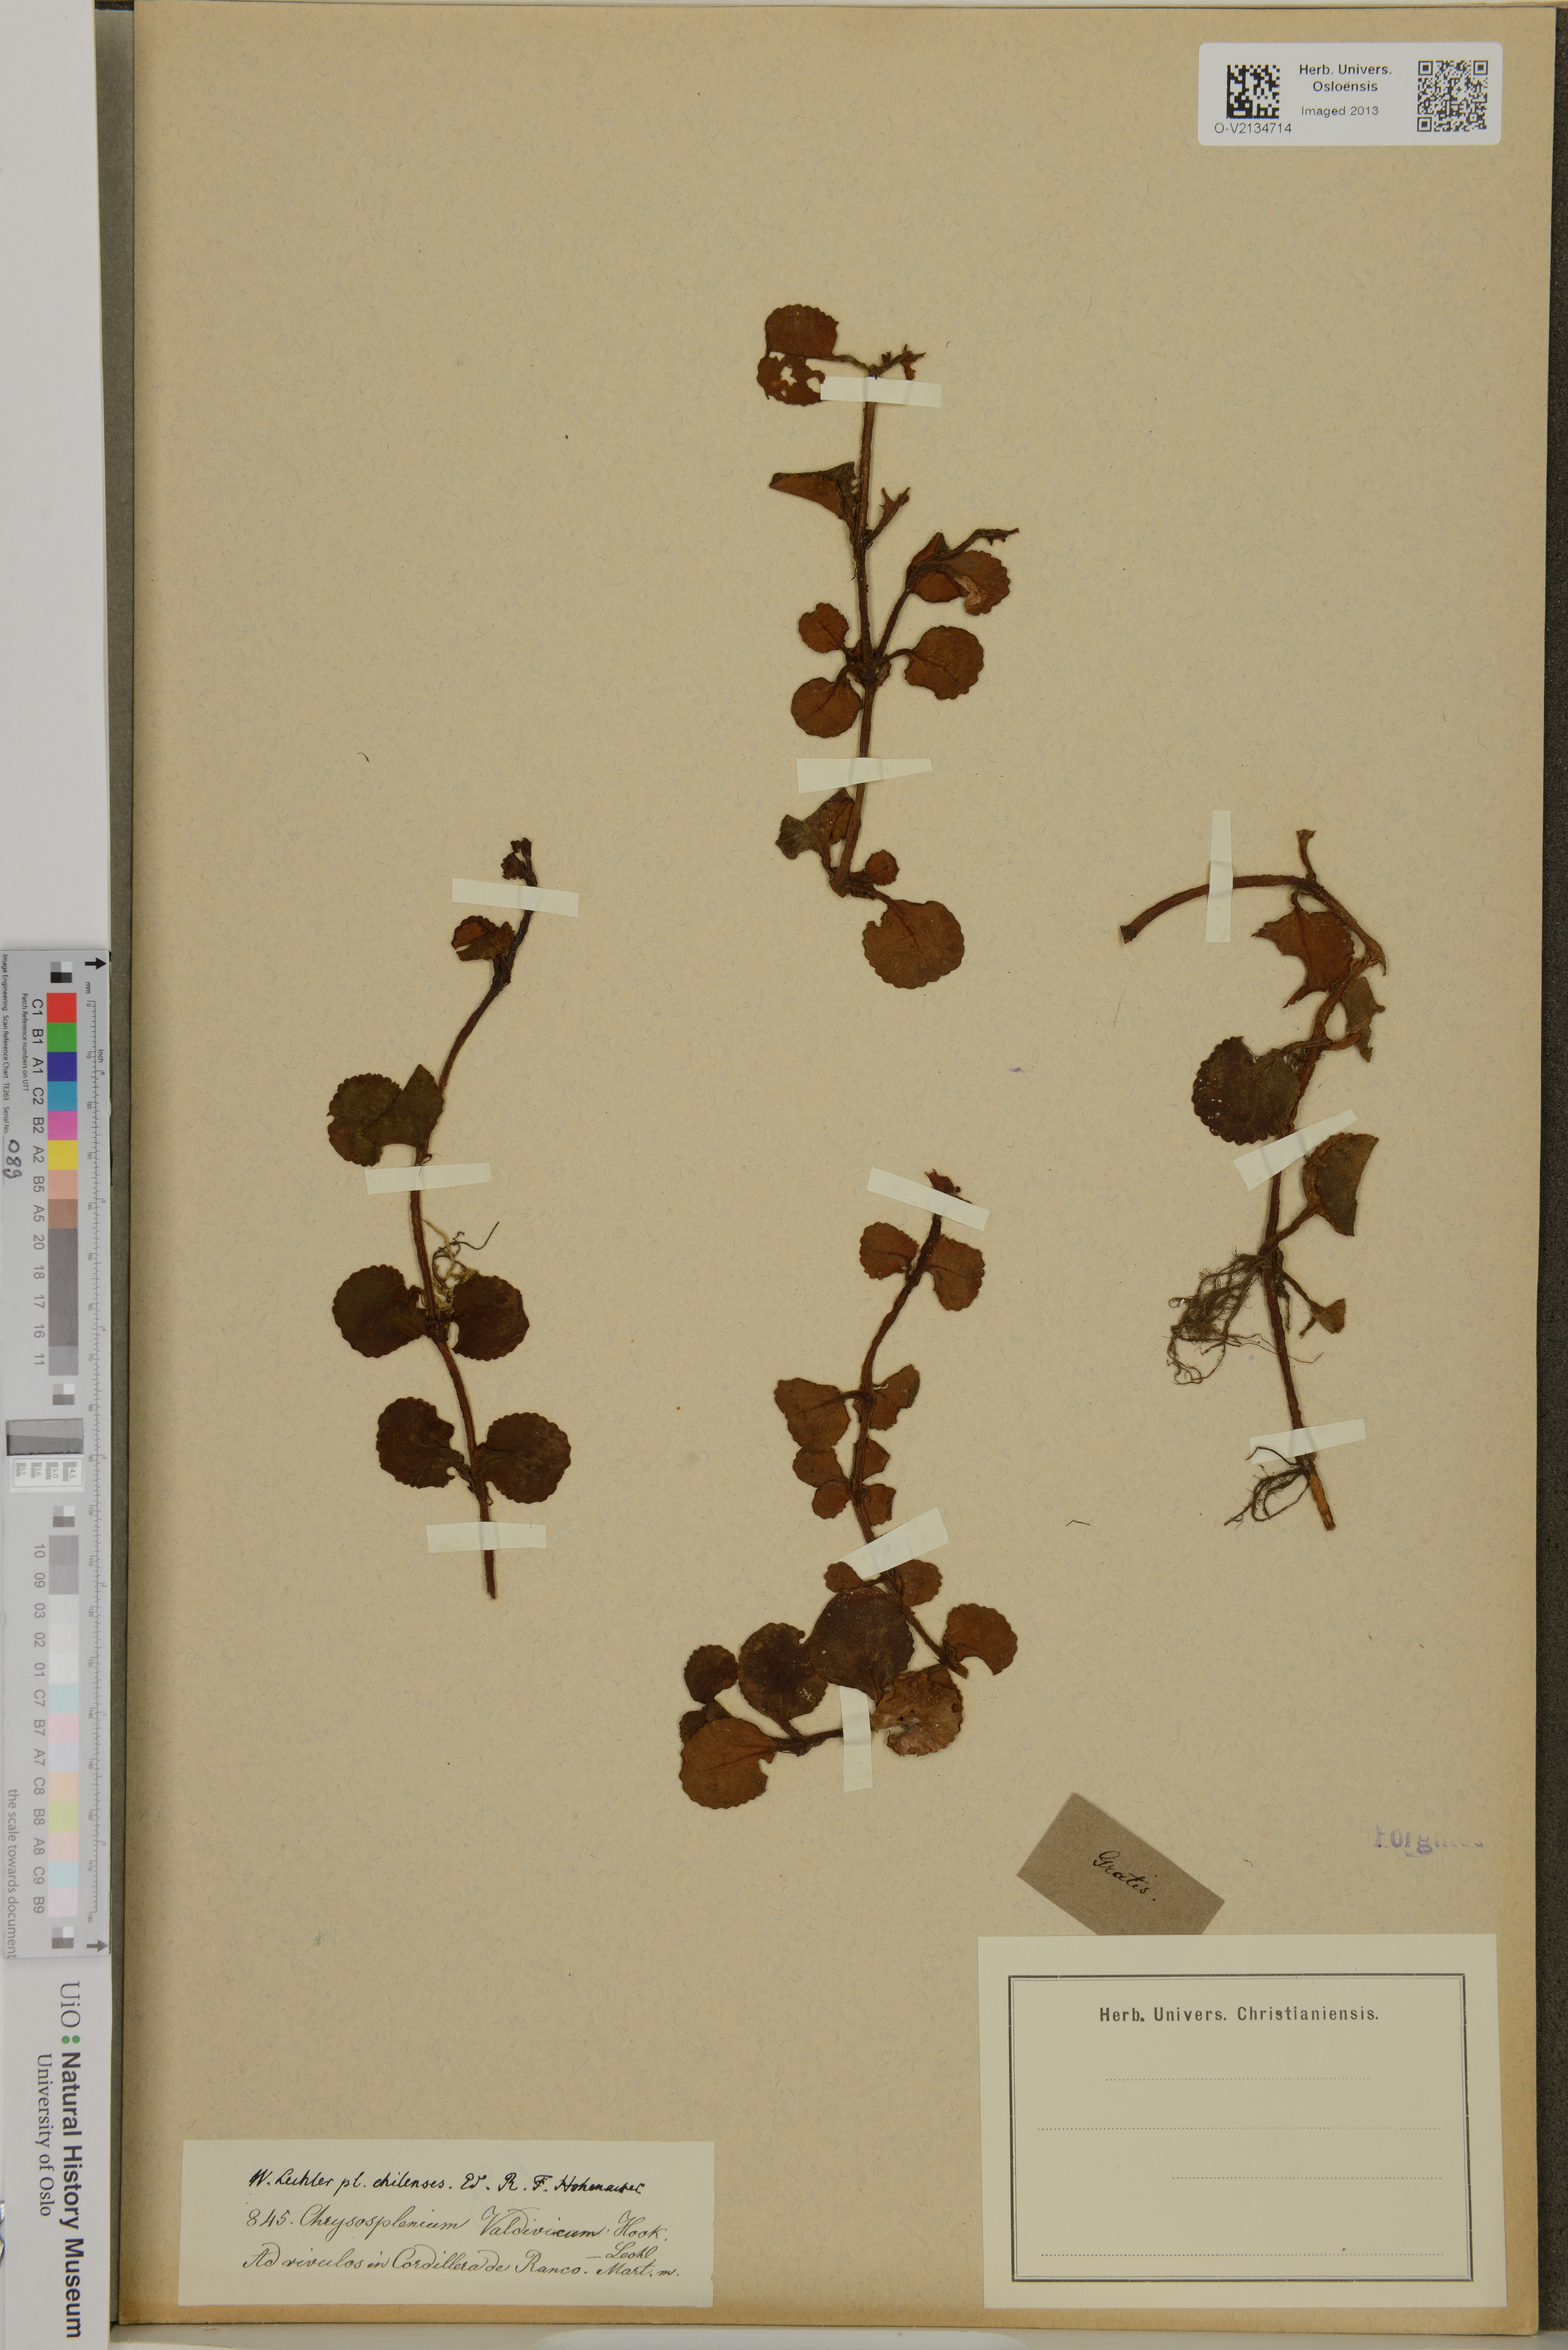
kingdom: Plantae
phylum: Tracheophyta
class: Magnoliopsida
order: Saxifragales
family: Saxifragaceae
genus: Chrysosplenium
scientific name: Chrysosplenium valdivicum
